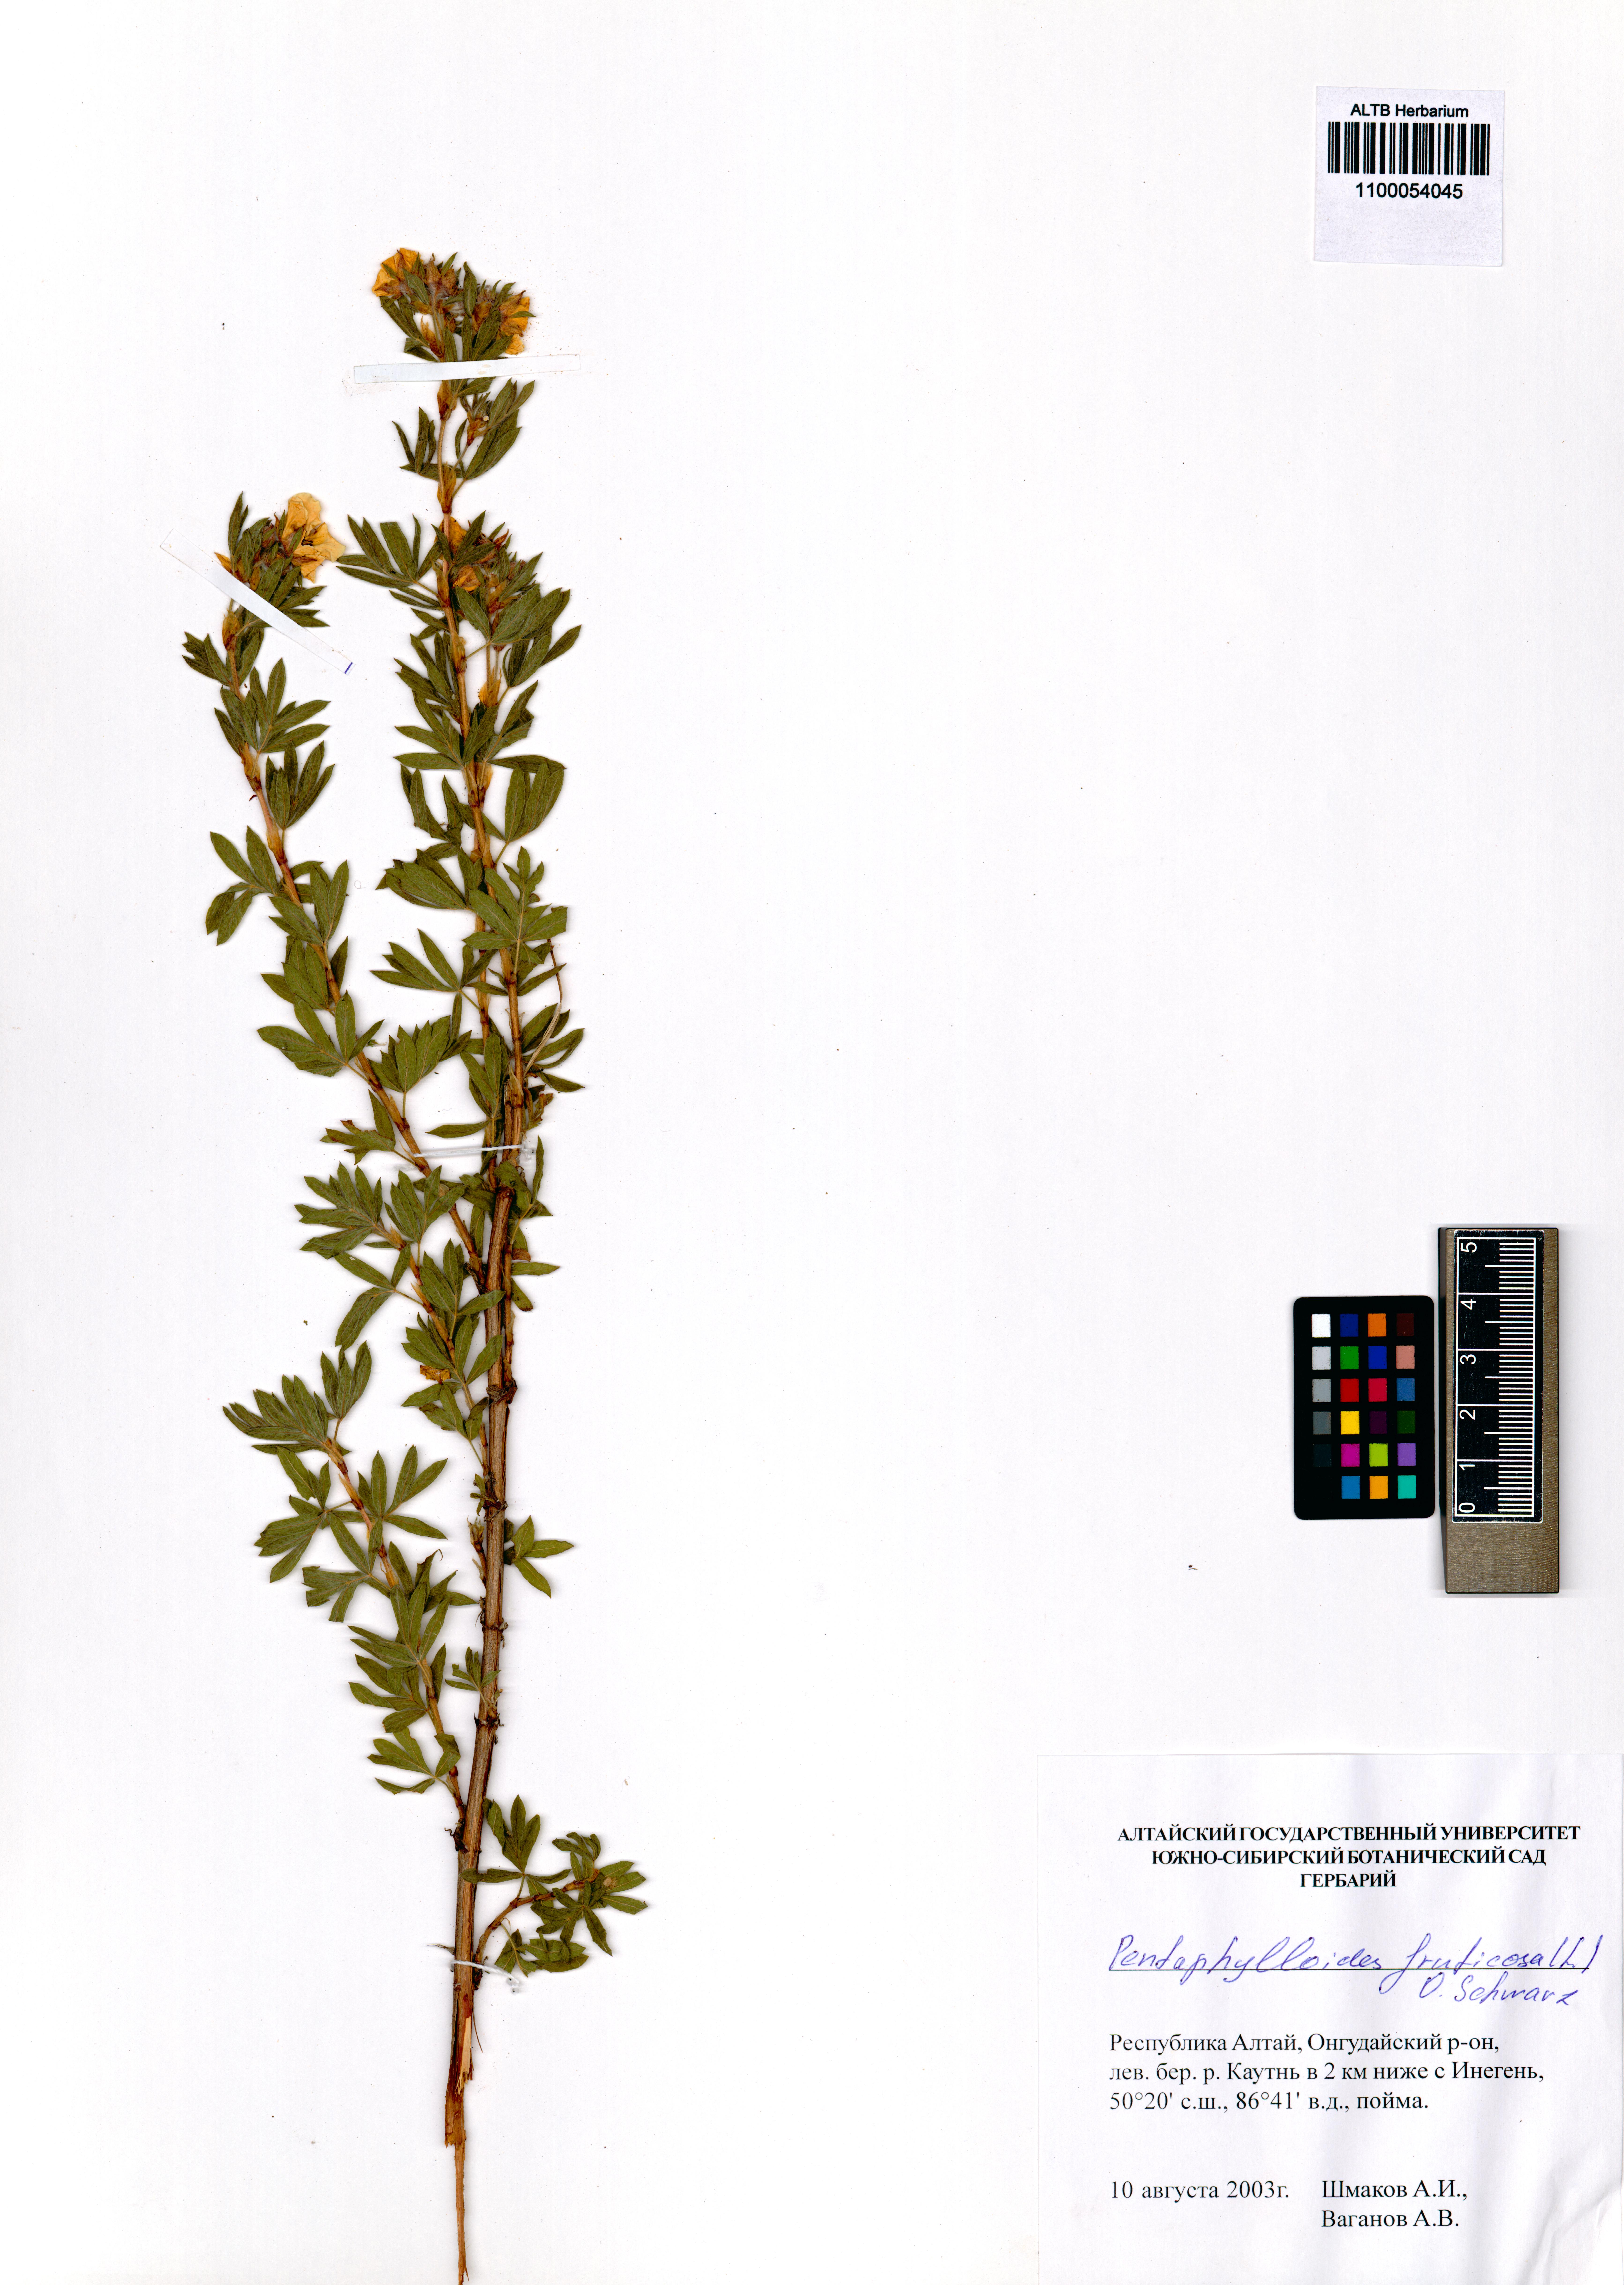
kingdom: Plantae
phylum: Tracheophyta
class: Magnoliopsida
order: Rosales
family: Rosaceae
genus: Dasiphora
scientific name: Dasiphora fruticosa
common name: Shrubby cinquefoil
